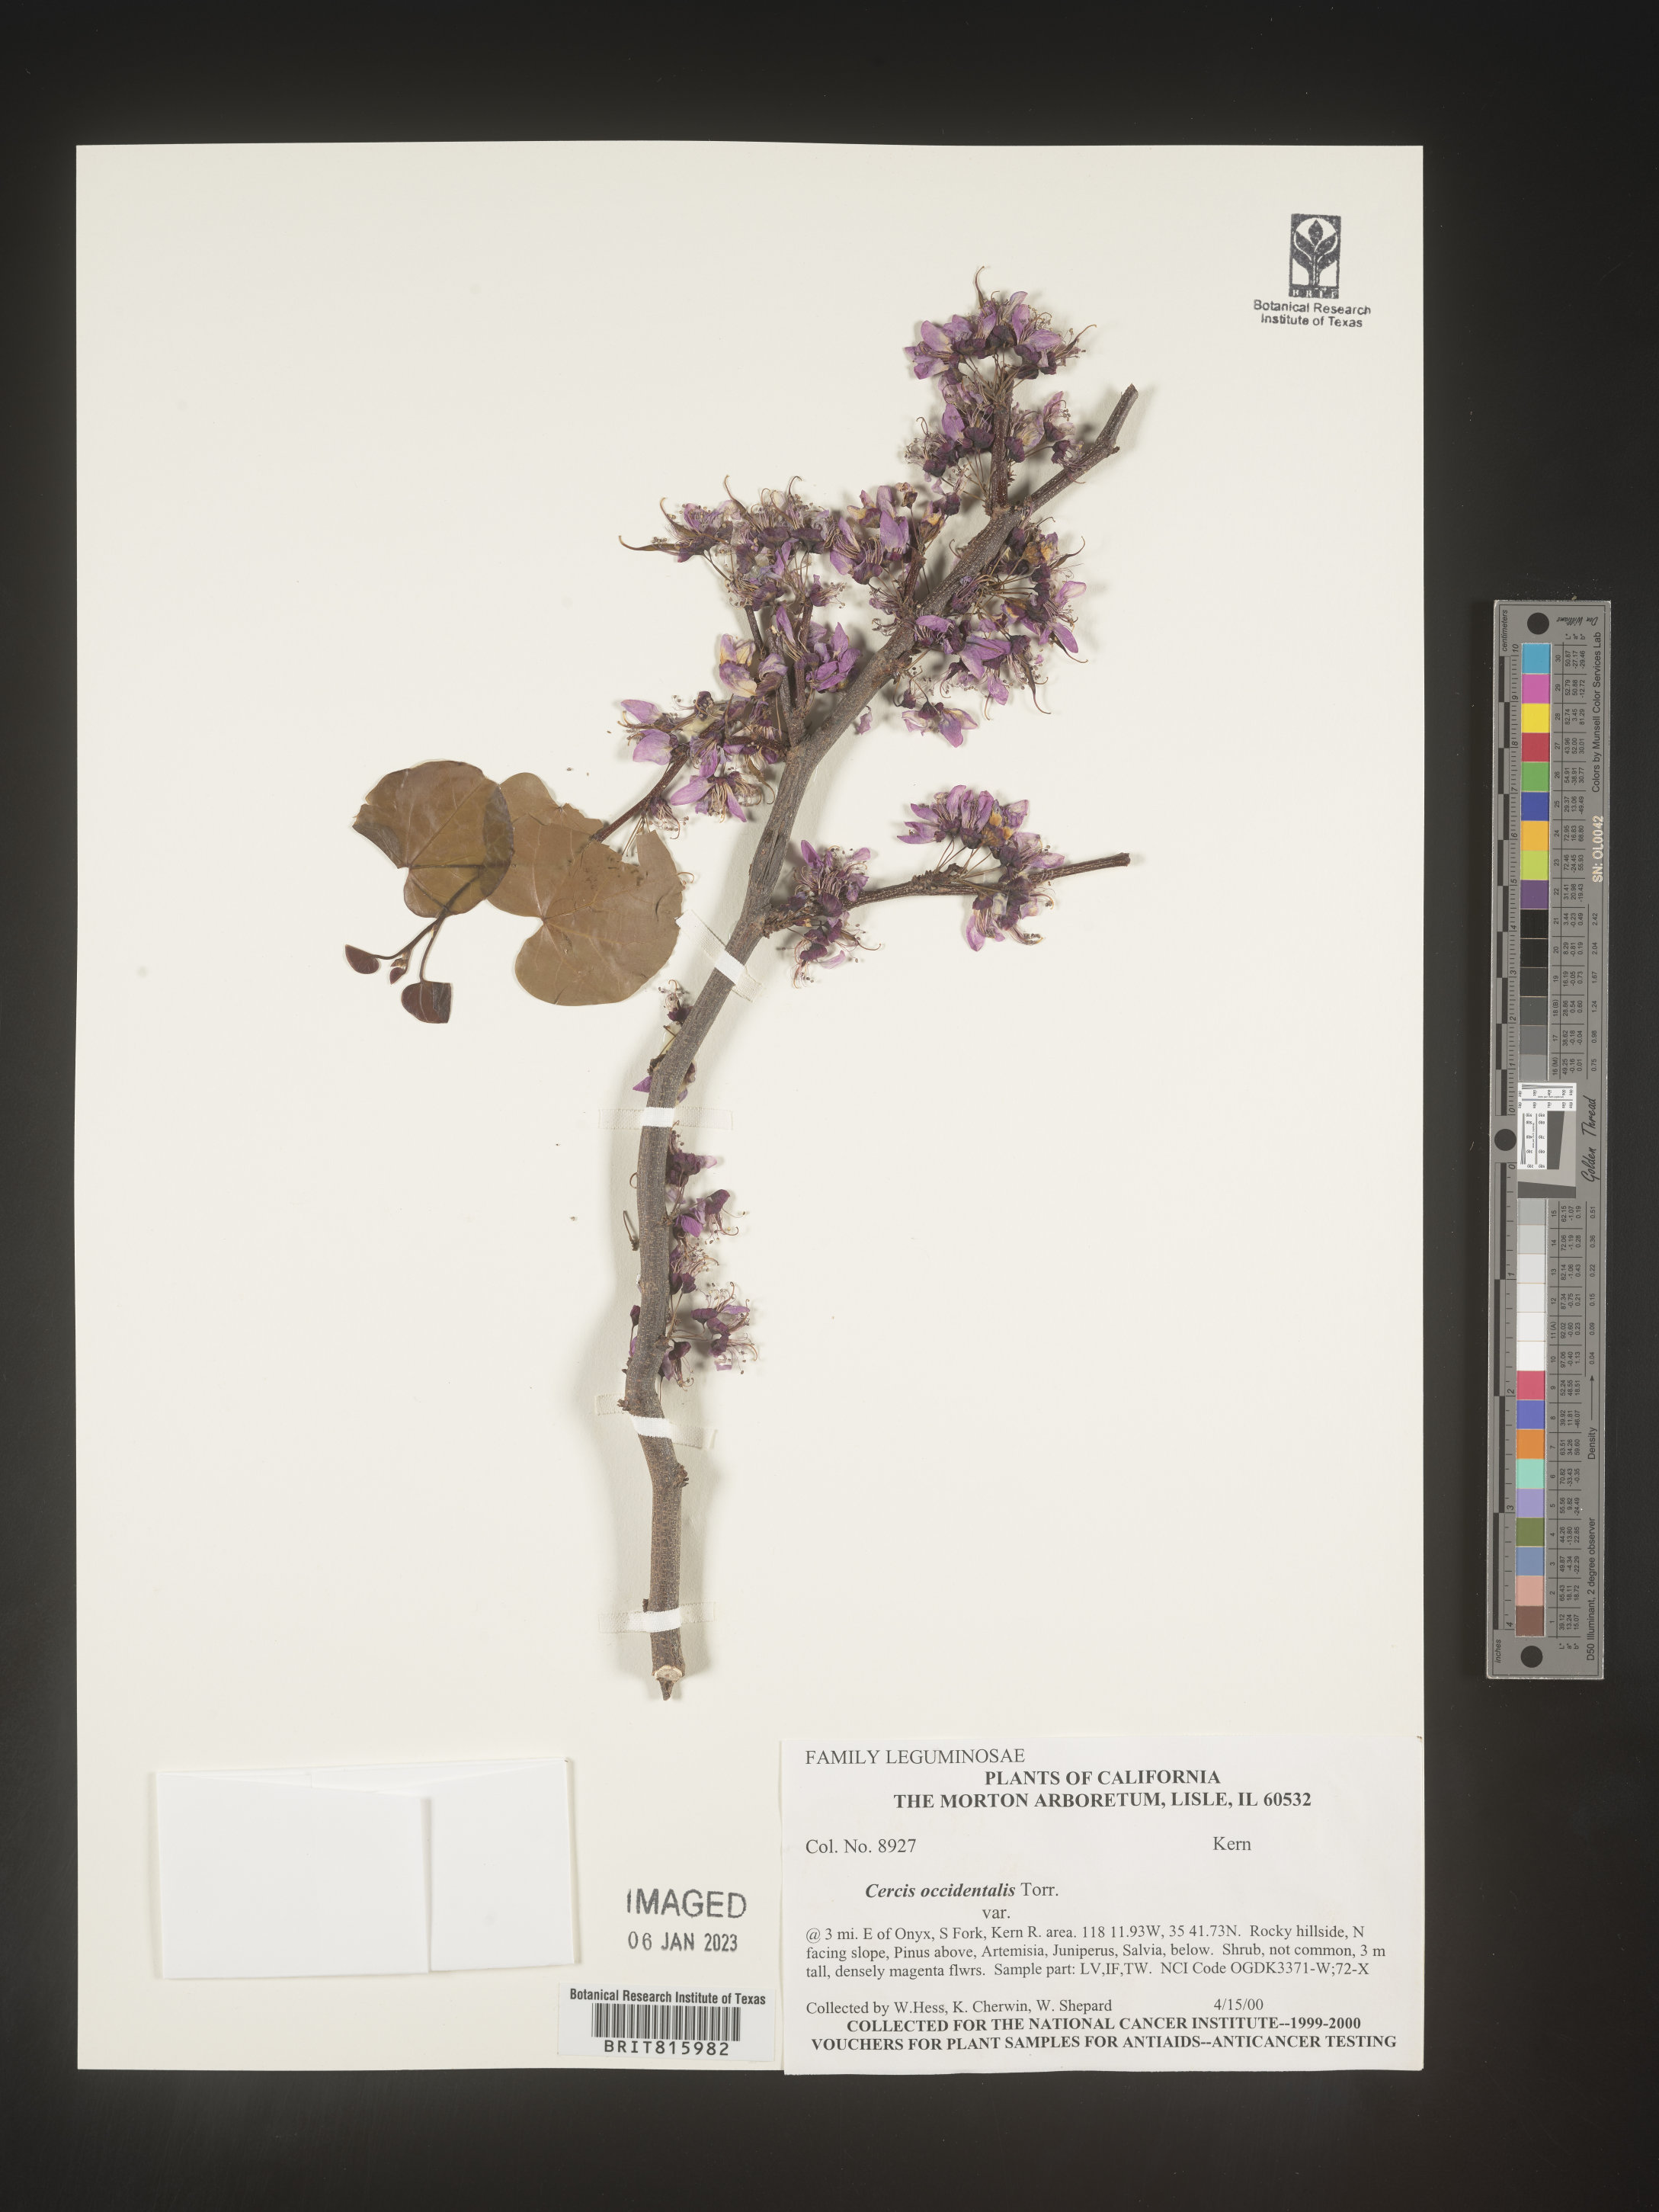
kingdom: Plantae
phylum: Tracheophyta
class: Magnoliopsida
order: Fabales
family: Fabaceae
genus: Cercis
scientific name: Cercis occidentalis
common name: California redbud
